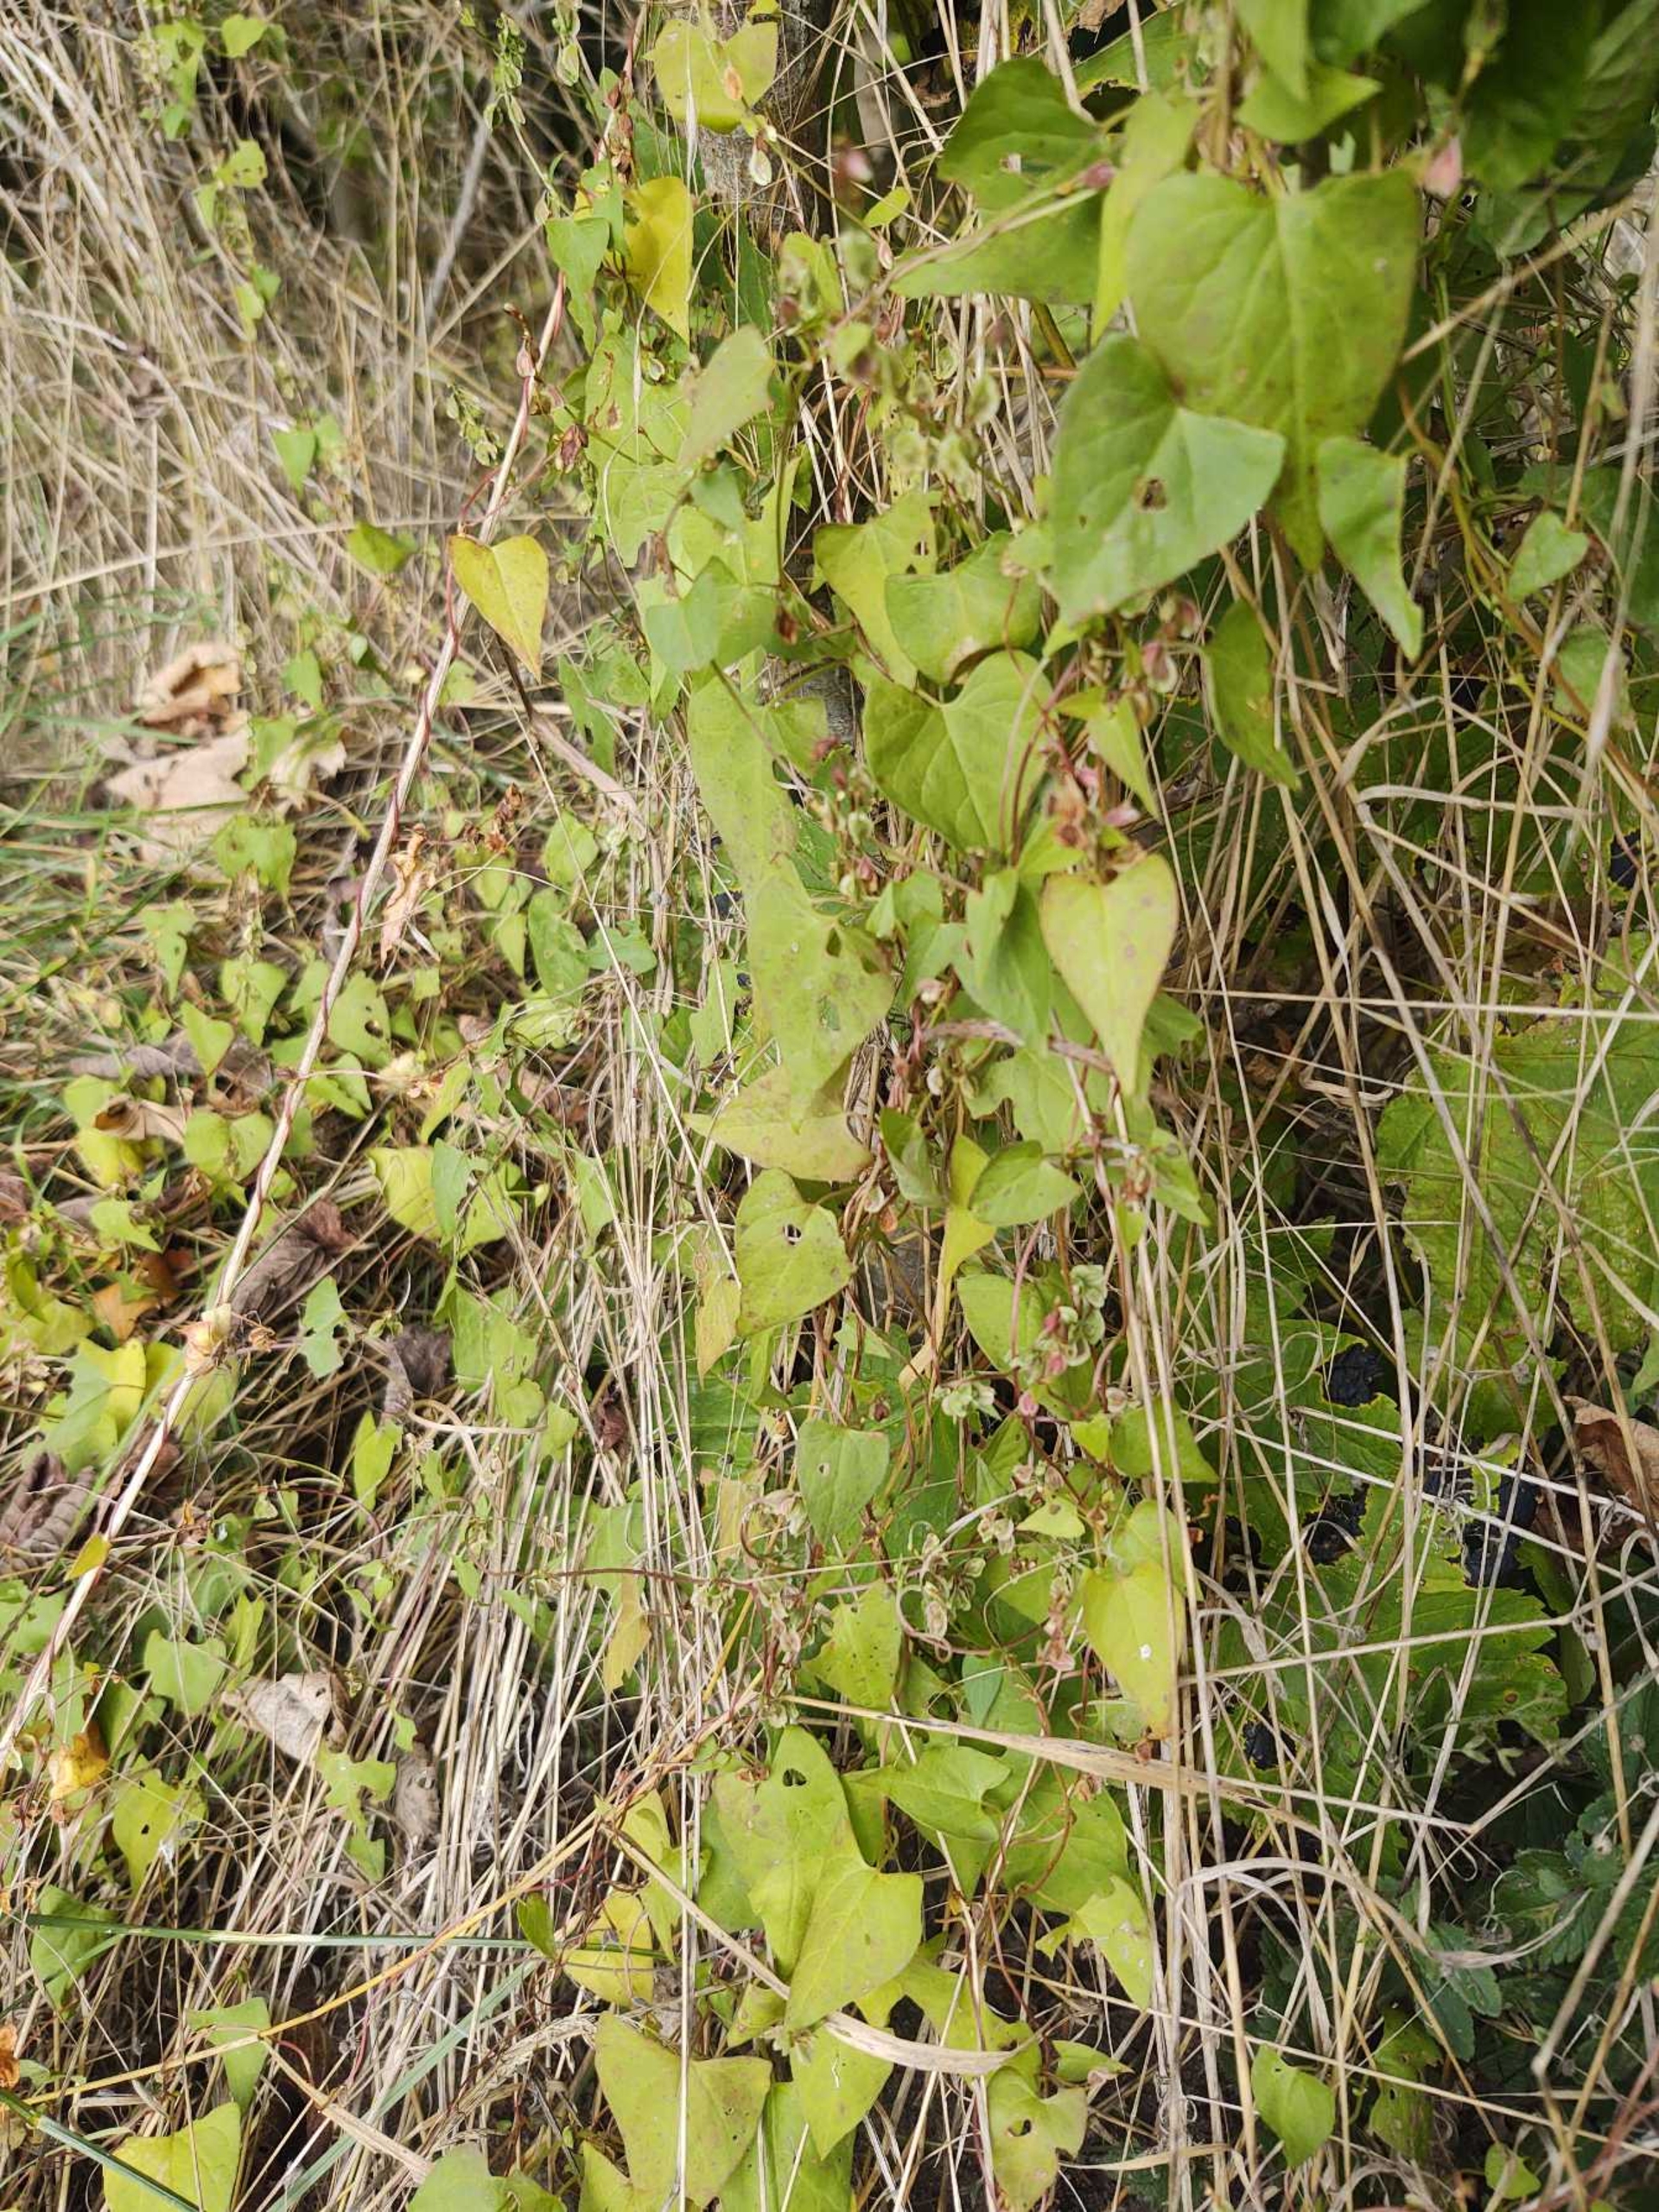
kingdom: Plantae
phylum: Tracheophyta
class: Magnoliopsida
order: Caryophyllales
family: Polygonaceae
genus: Fallopia
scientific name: Fallopia dumetorum
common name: Vinge-pileurt
